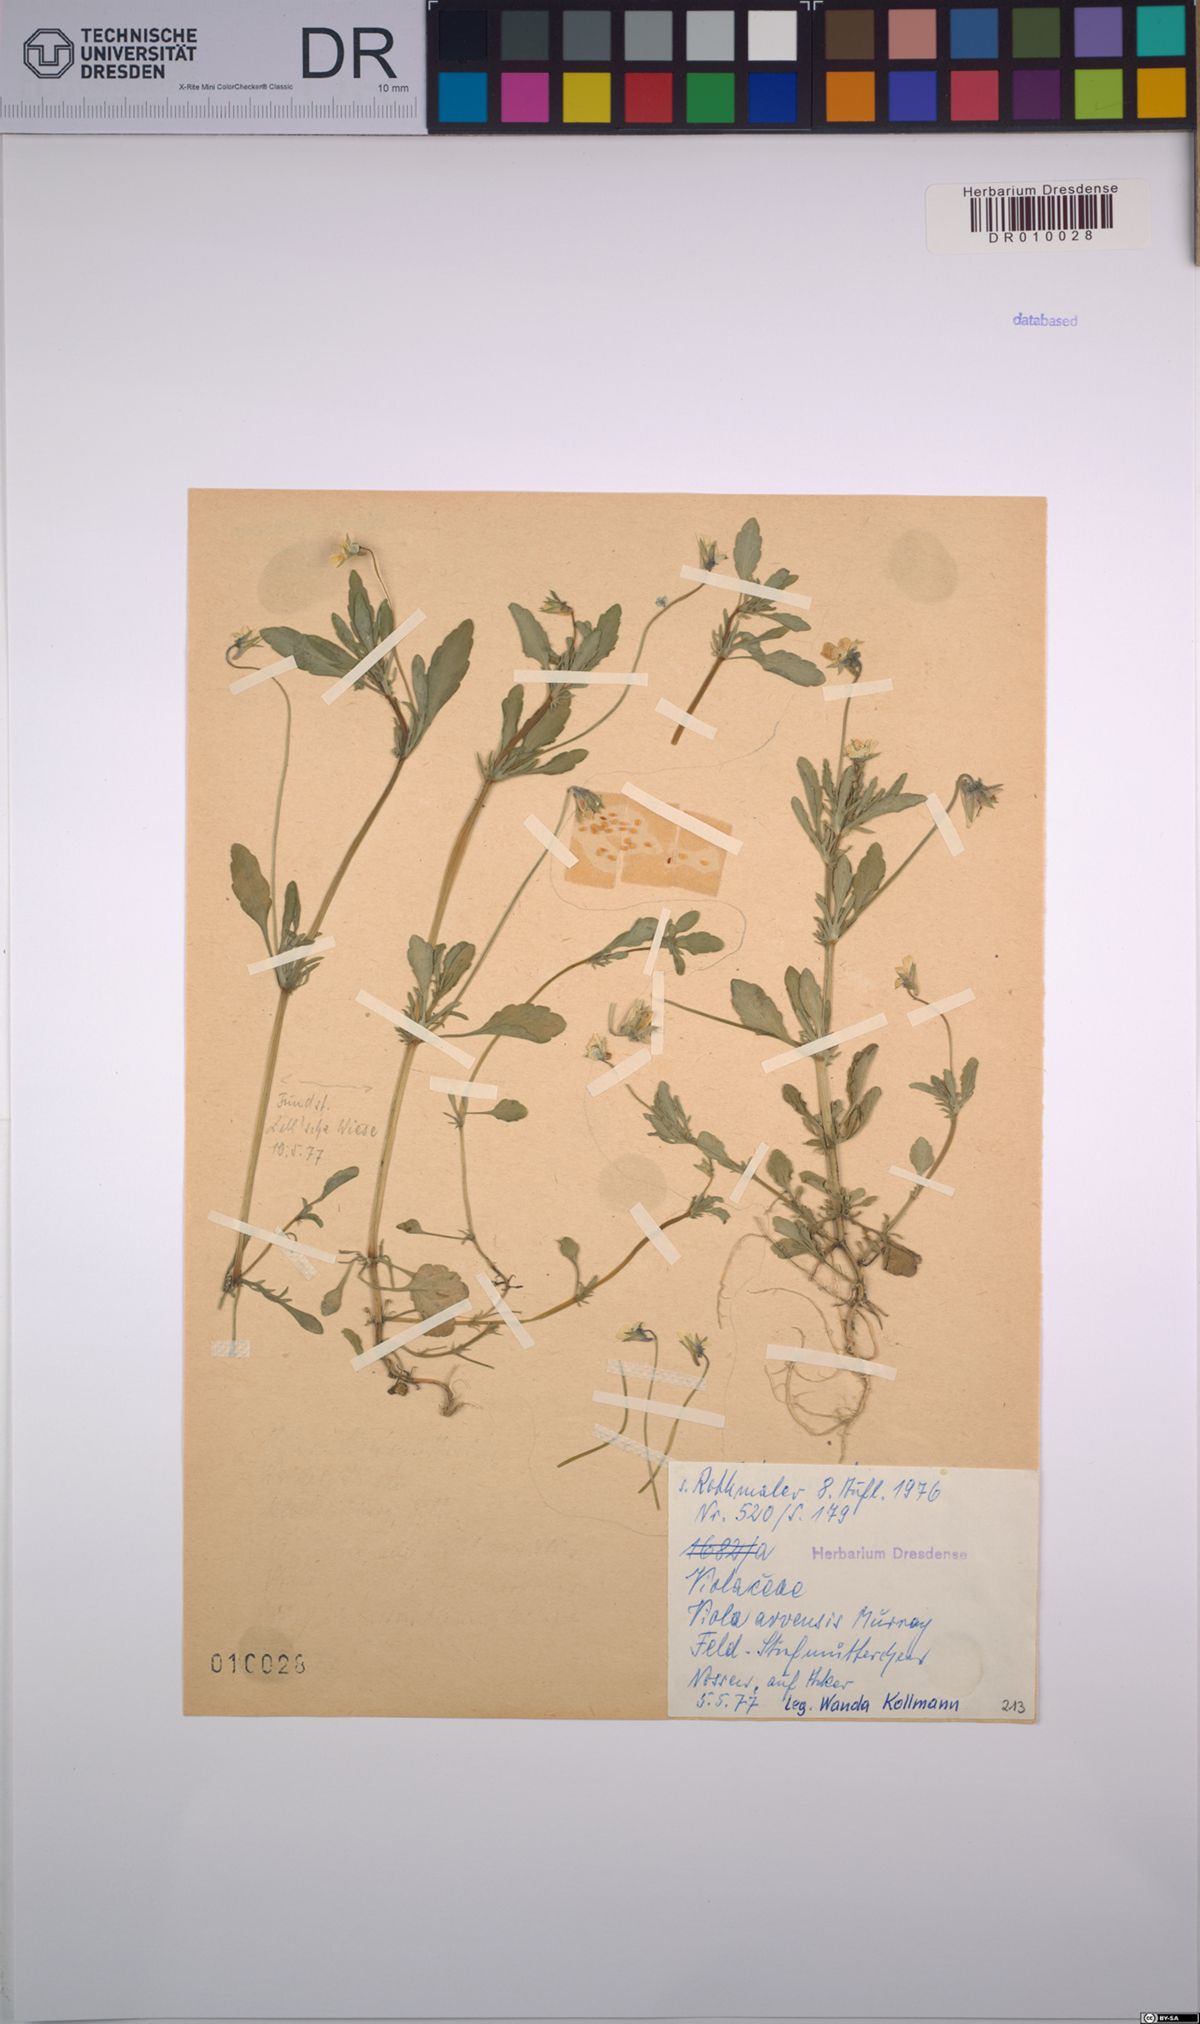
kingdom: Plantae
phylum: Tracheophyta
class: Magnoliopsida
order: Malpighiales
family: Violaceae
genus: Viola
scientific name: Viola arvensis
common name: Field pansy
